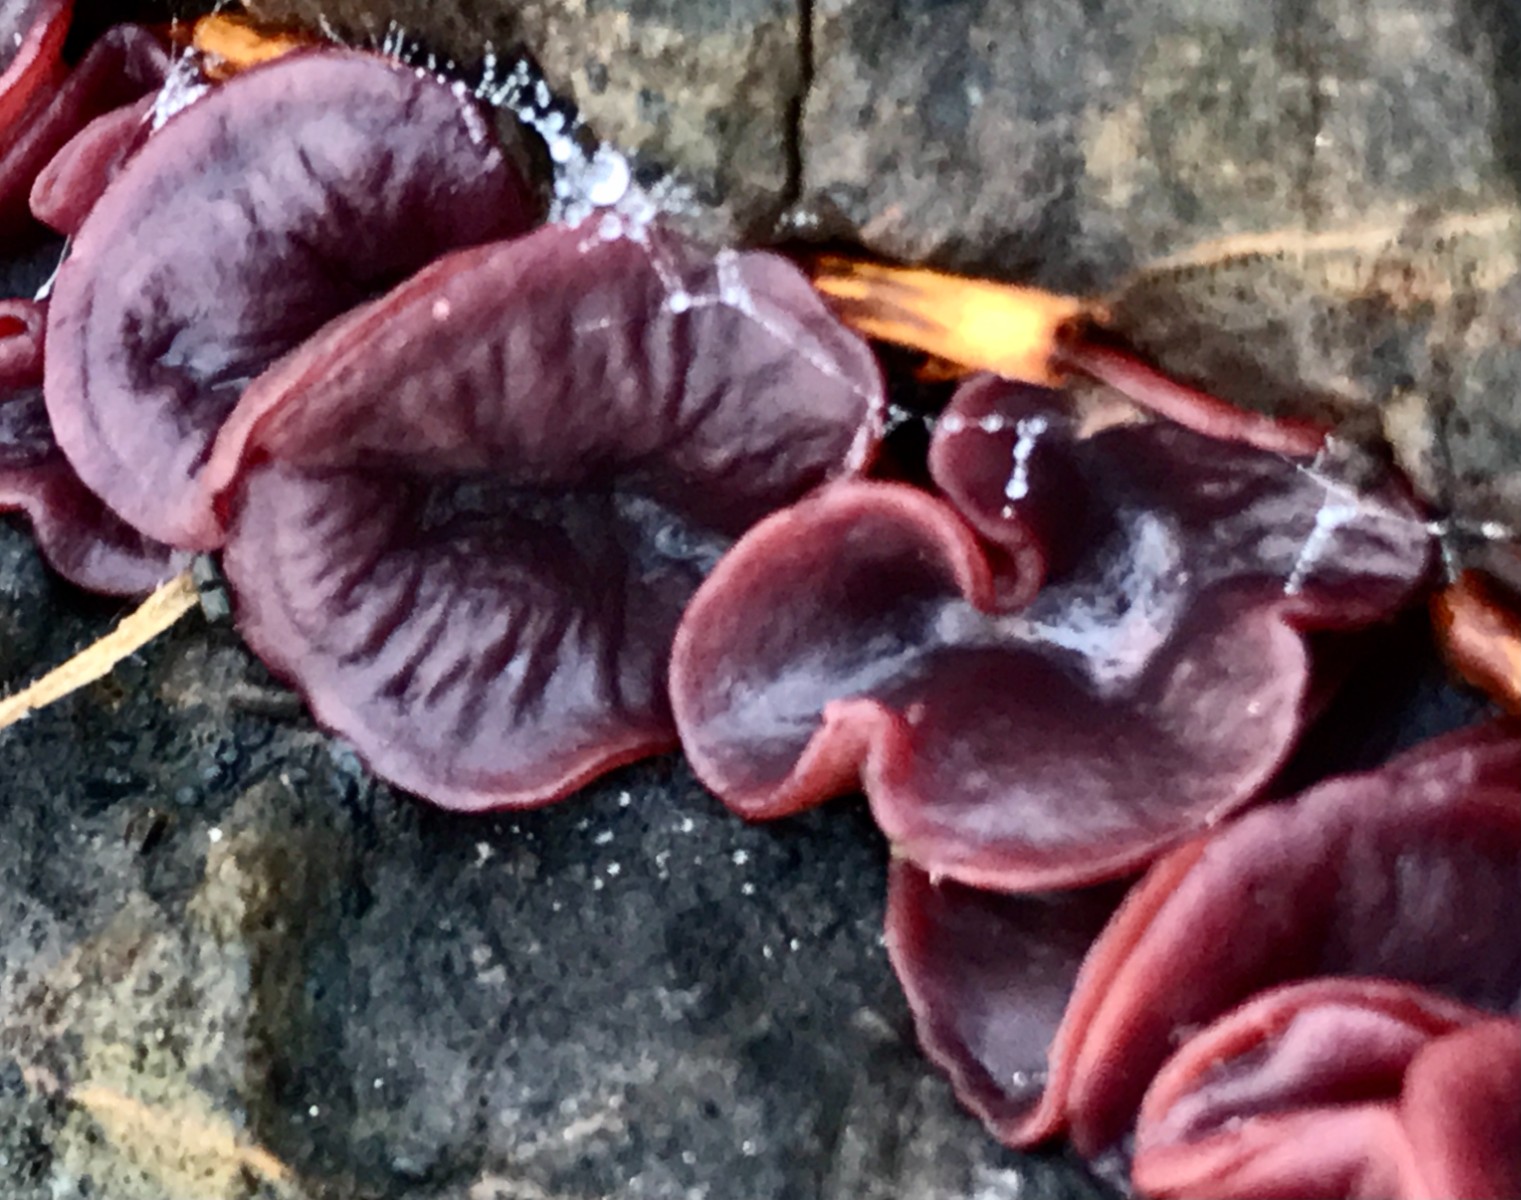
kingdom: Fungi
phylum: Ascomycota
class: Leotiomycetes
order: Helotiales
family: Gelatinodiscaceae
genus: Ascocoryne
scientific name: Ascocoryne cylichnium
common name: stor sejskive
